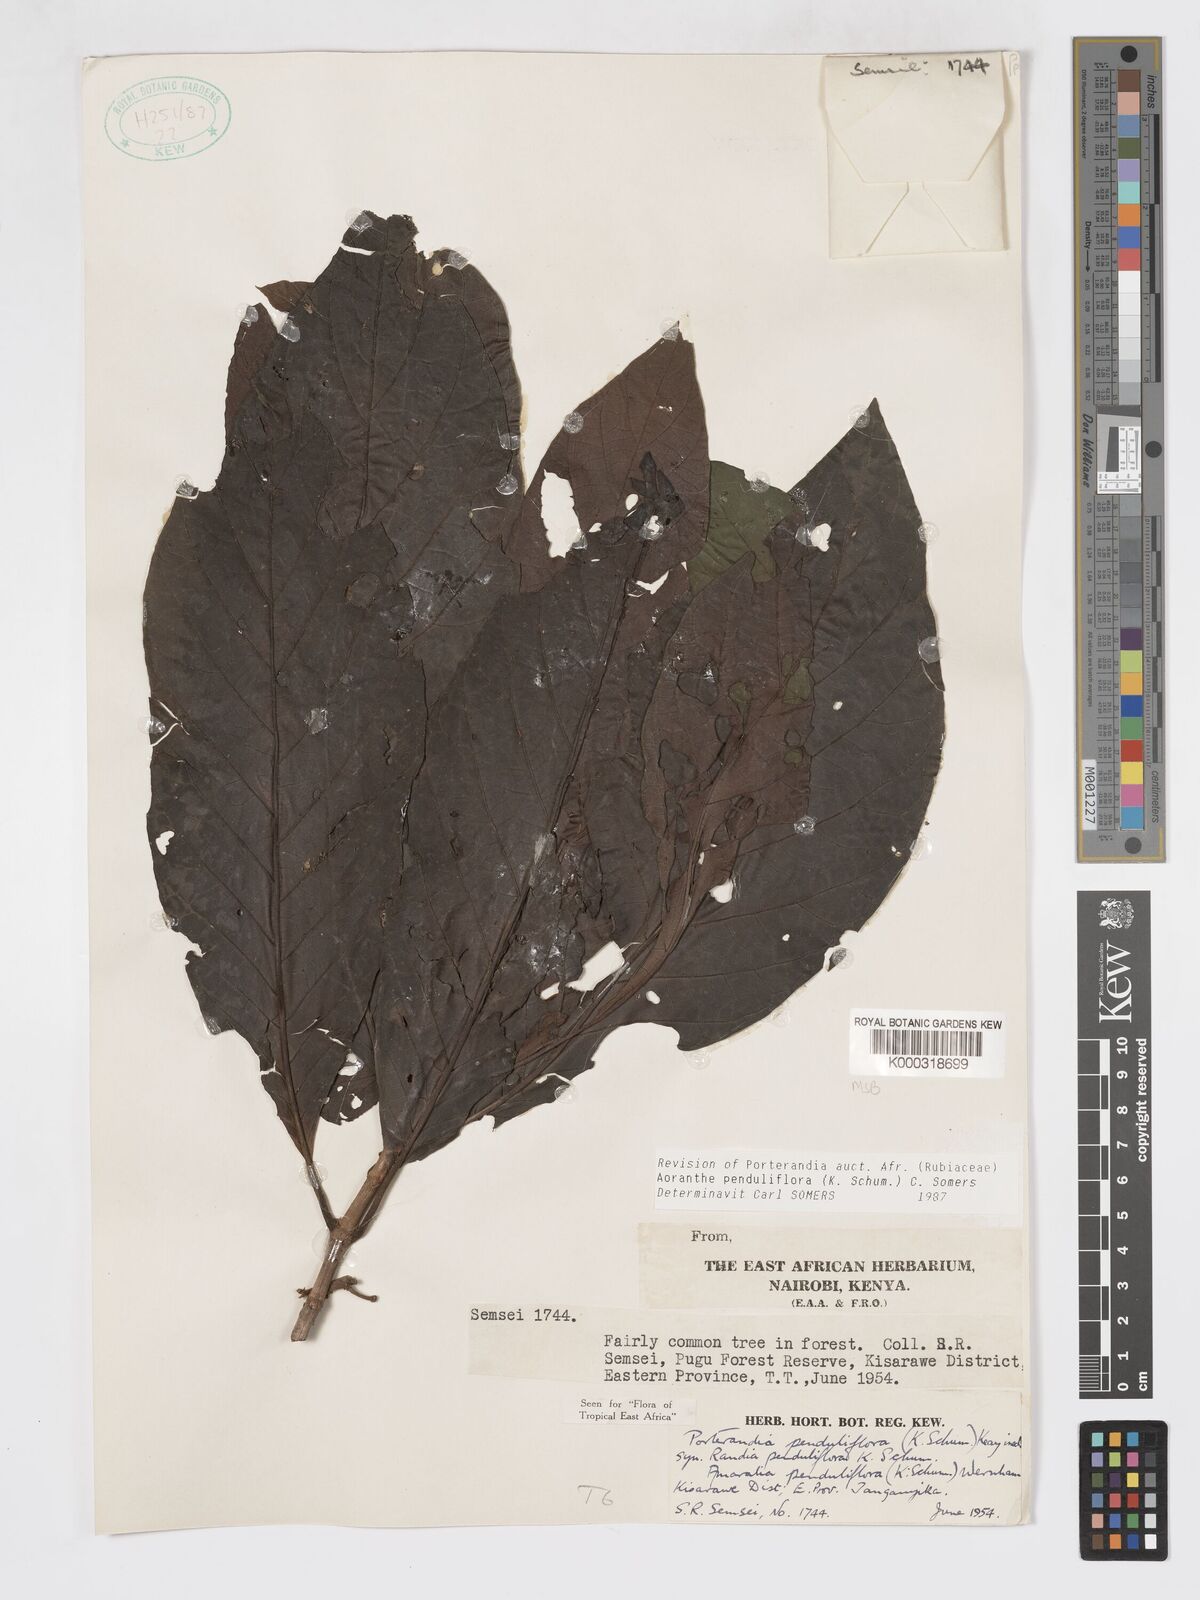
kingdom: Plantae
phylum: Tracheophyta
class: Magnoliopsida
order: Gentianales
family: Rubiaceae
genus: Aoranthe
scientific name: Aoranthe penduliflora
